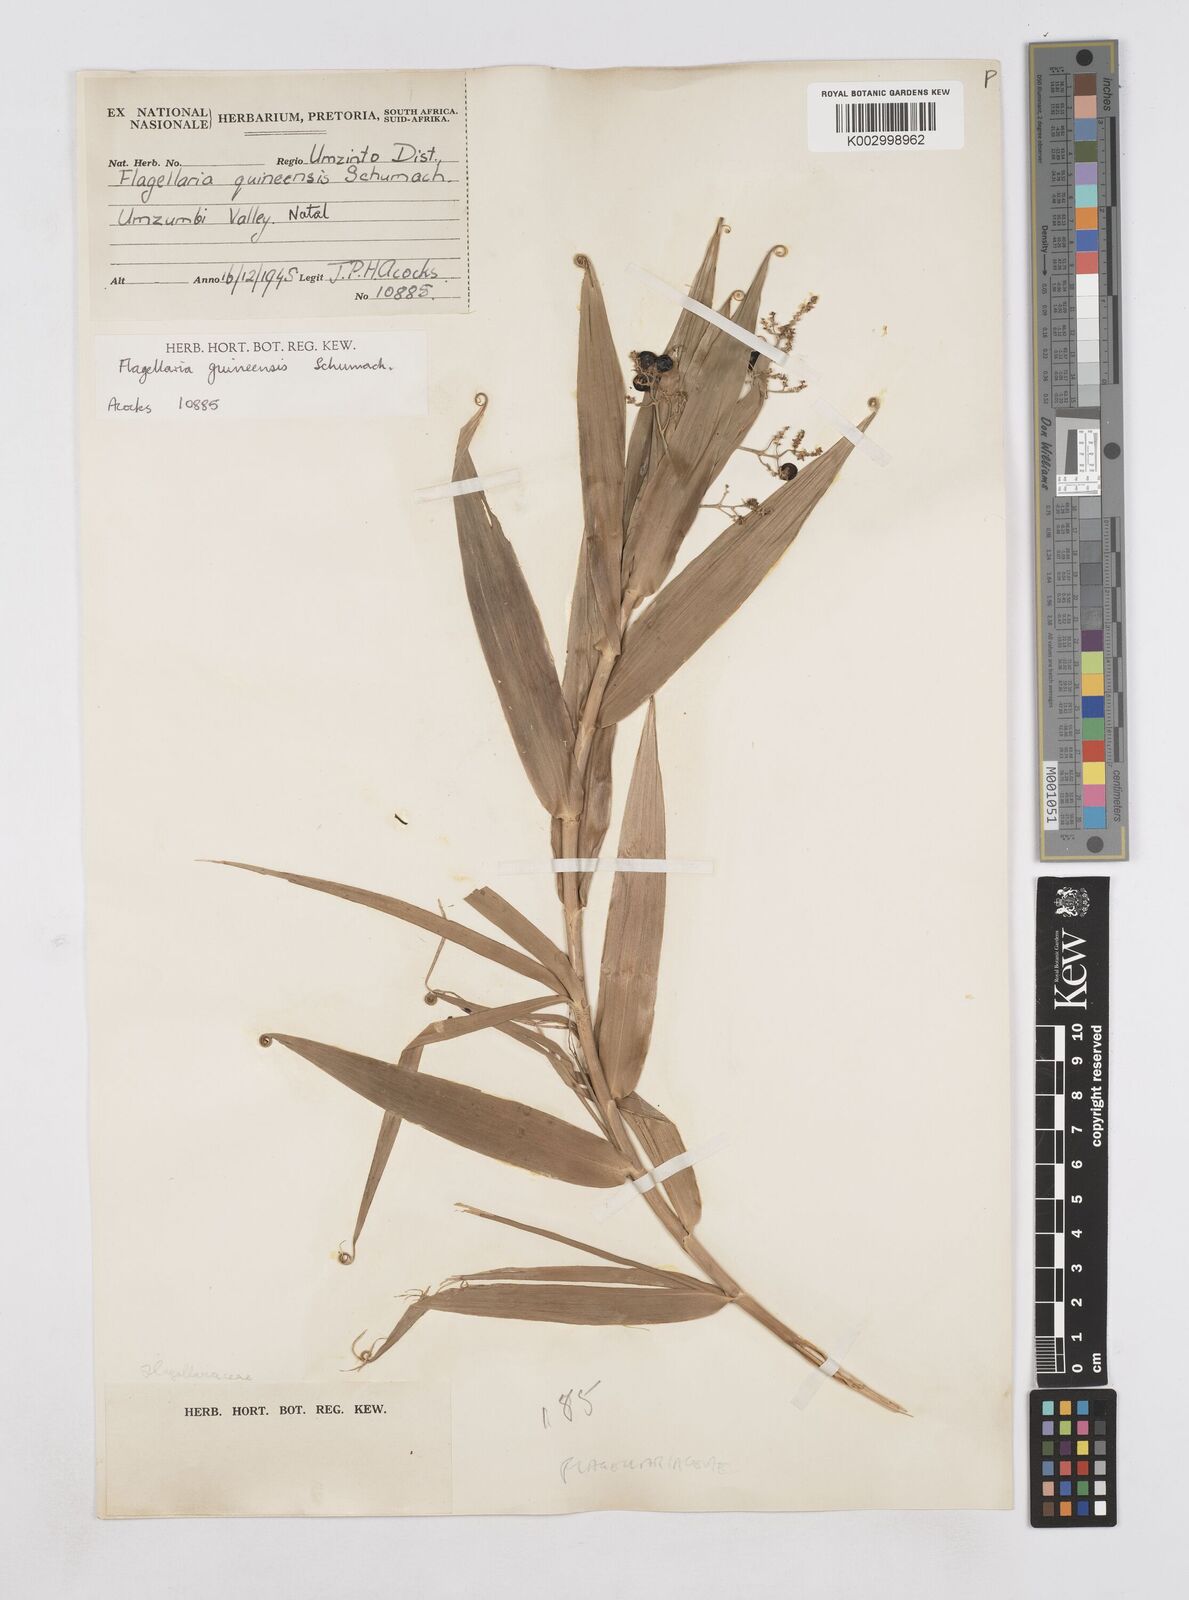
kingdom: Plantae
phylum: Tracheophyta
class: Liliopsida
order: Poales
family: Flagellariaceae
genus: Flagellaria
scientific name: Flagellaria guineensis
